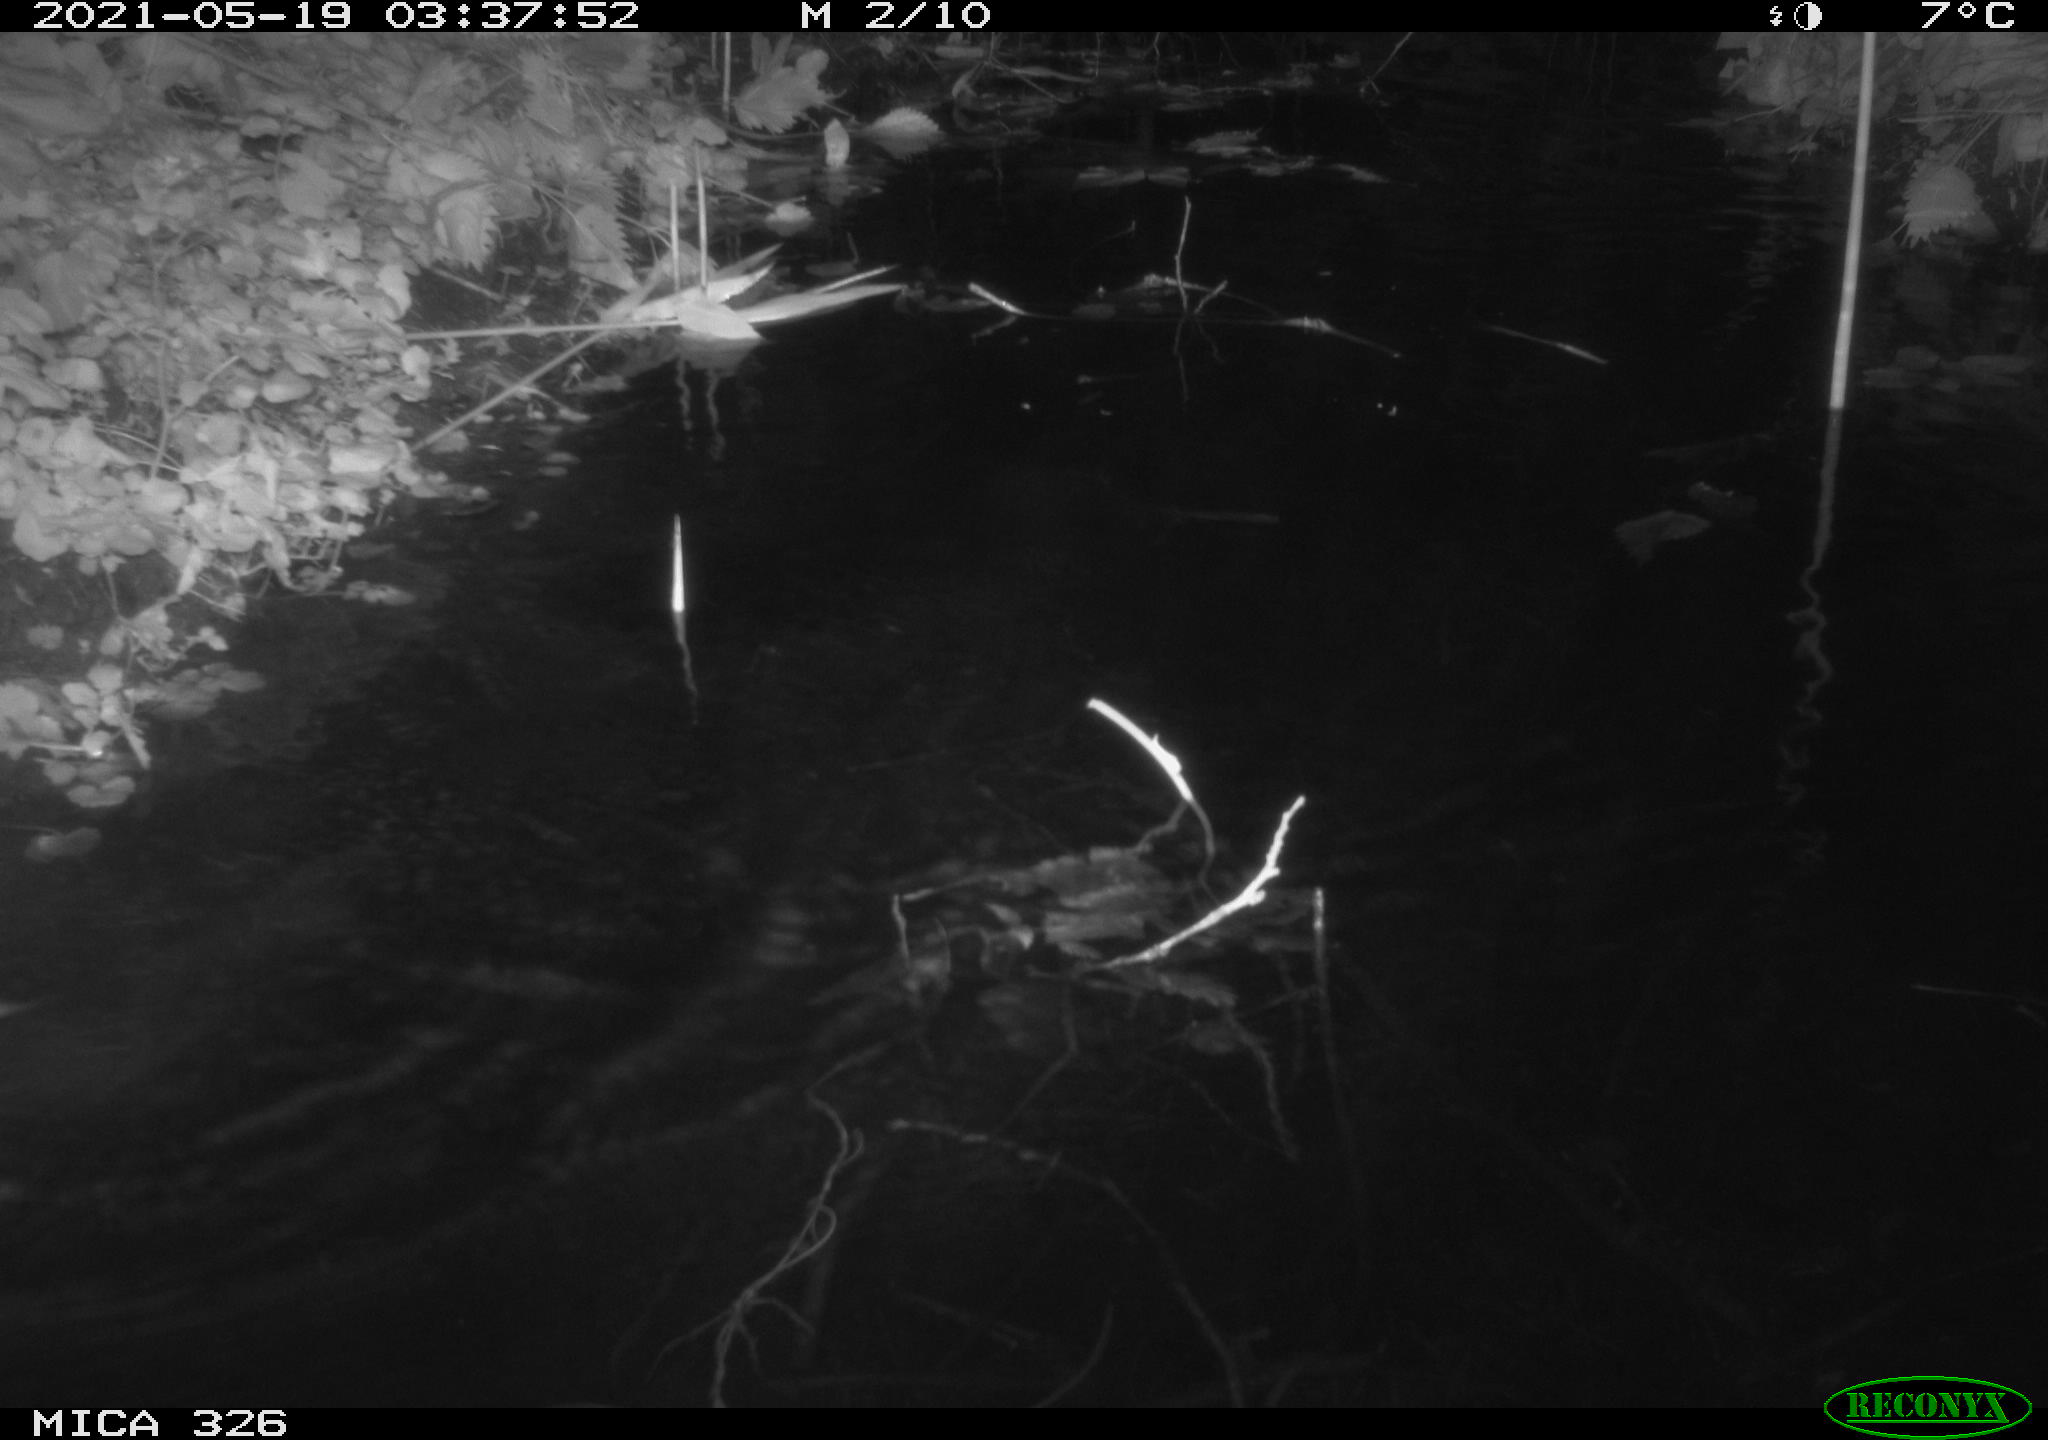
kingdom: Animalia
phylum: Chordata
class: Mammalia
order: Rodentia
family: Muridae
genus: Rattus
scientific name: Rattus norvegicus
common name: Brown rat
